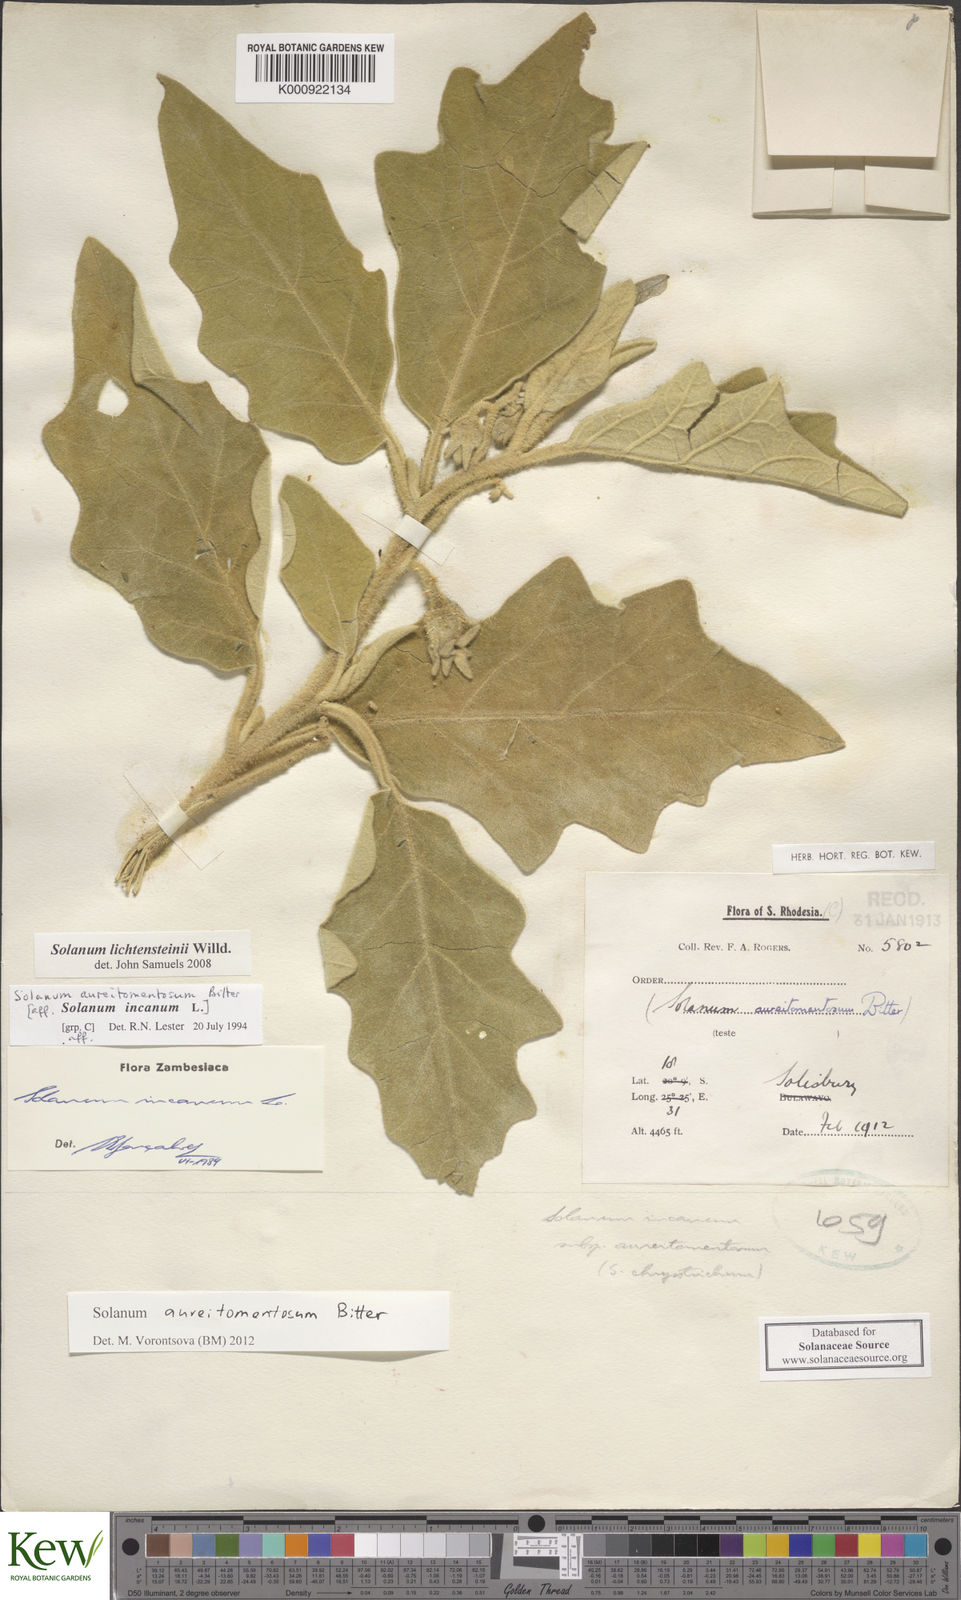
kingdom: Plantae
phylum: Tracheophyta
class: Magnoliopsida
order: Solanales
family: Solanaceae
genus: Solanum
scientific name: Solanum aureitomentosum
